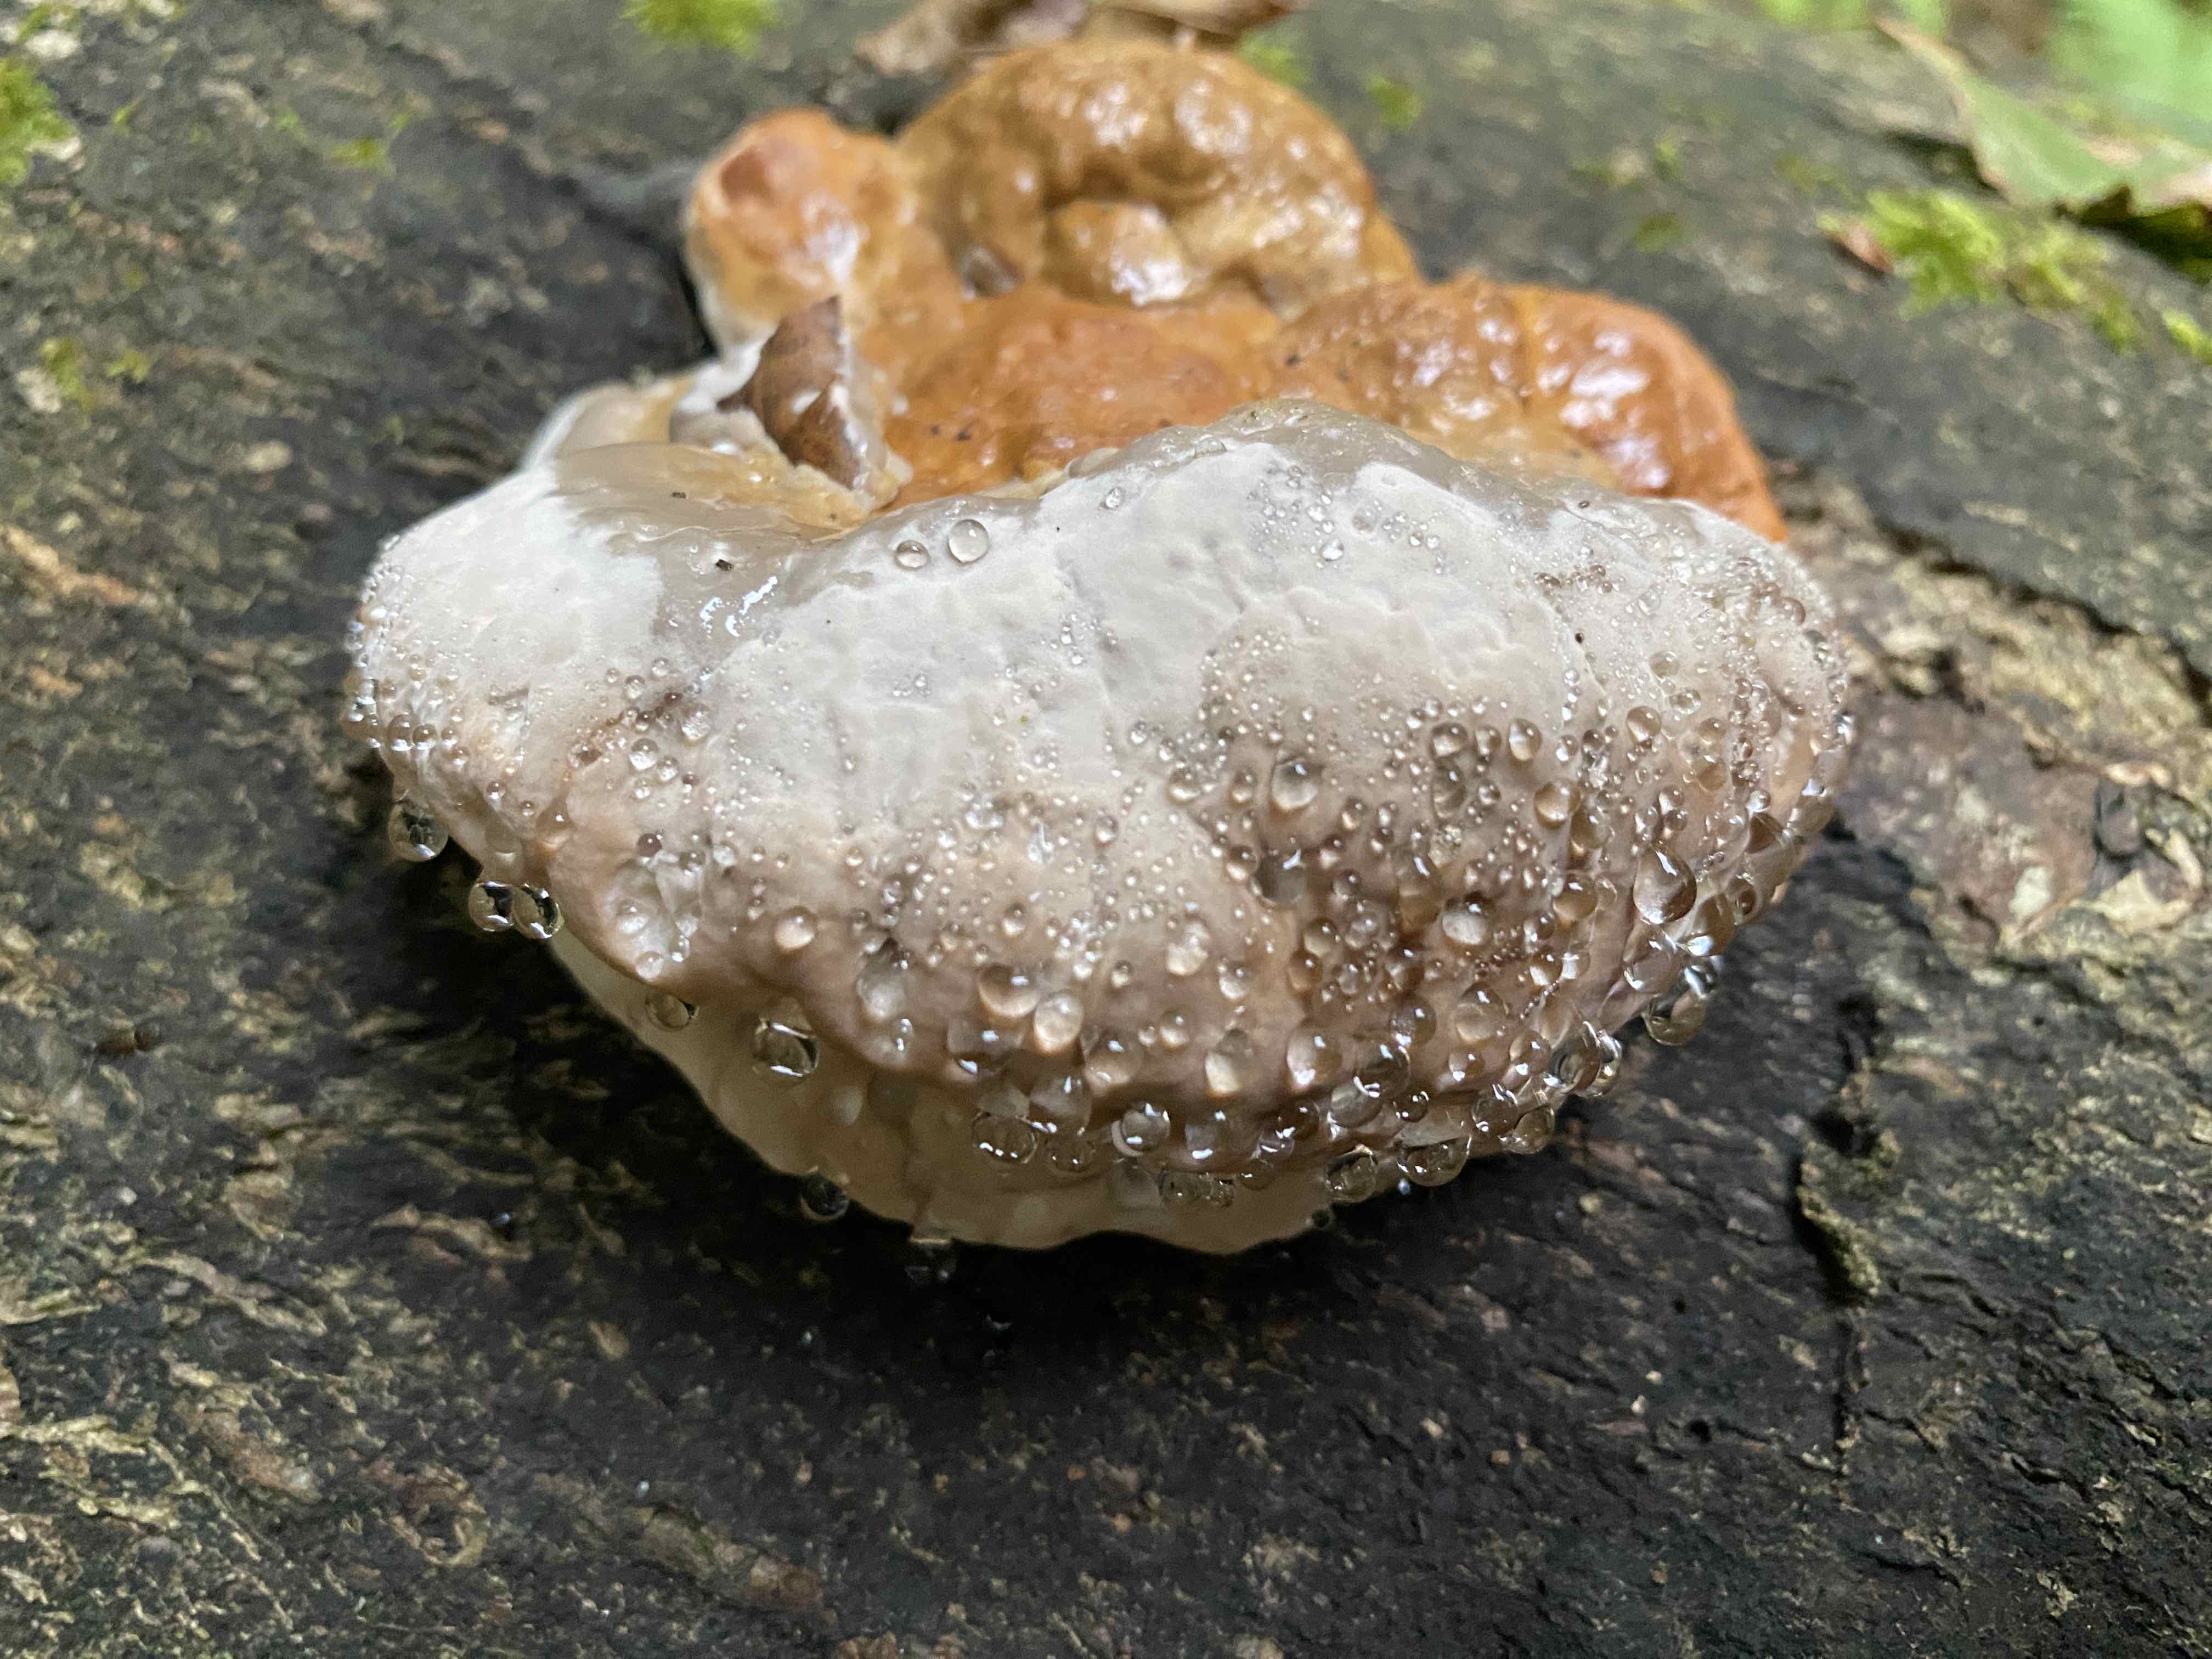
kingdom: Fungi
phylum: Basidiomycota
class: Agaricomycetes
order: Polyporales
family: Fomitopsidaceae
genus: Fomitopsis
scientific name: Fomitopsis pinicola
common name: randbæltet hovporesvamp
